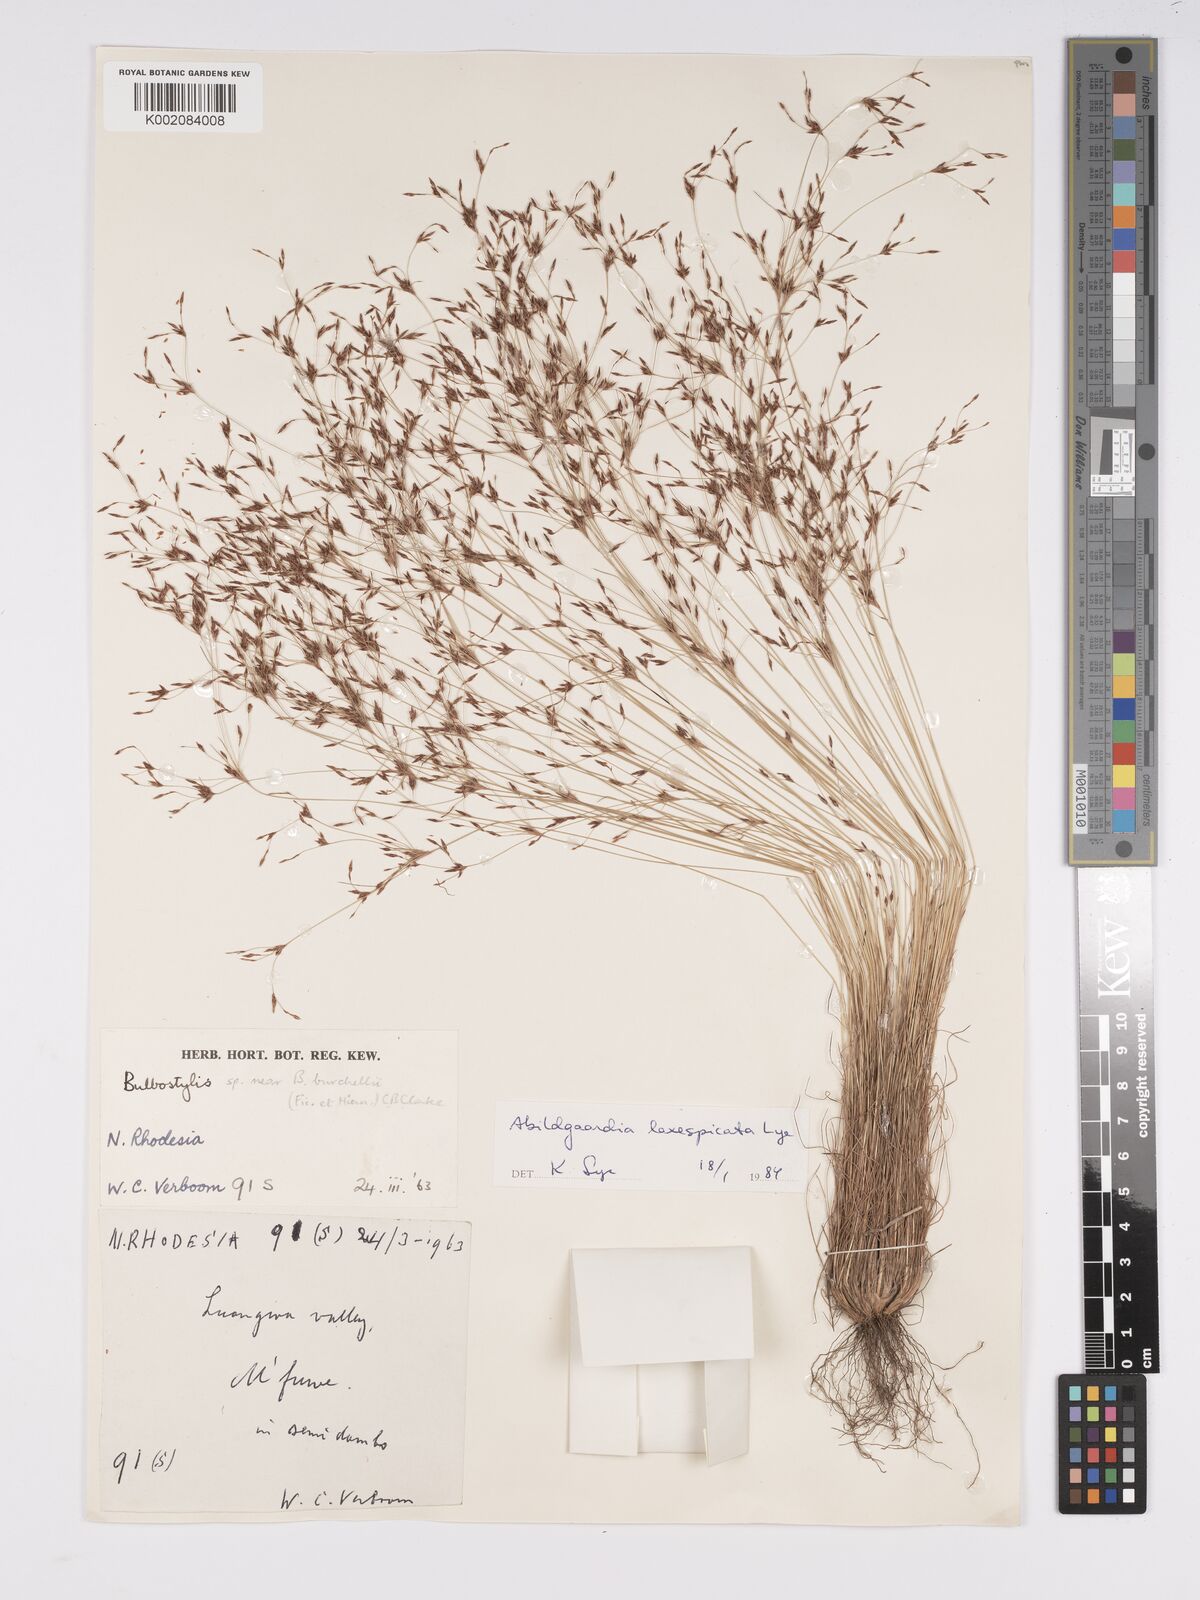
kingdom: Plantae
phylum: Tracheophyta
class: Liliopsida
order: Poales
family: Cyperaceae
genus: Bulbostylis
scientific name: Bulbostylis laxispicata
